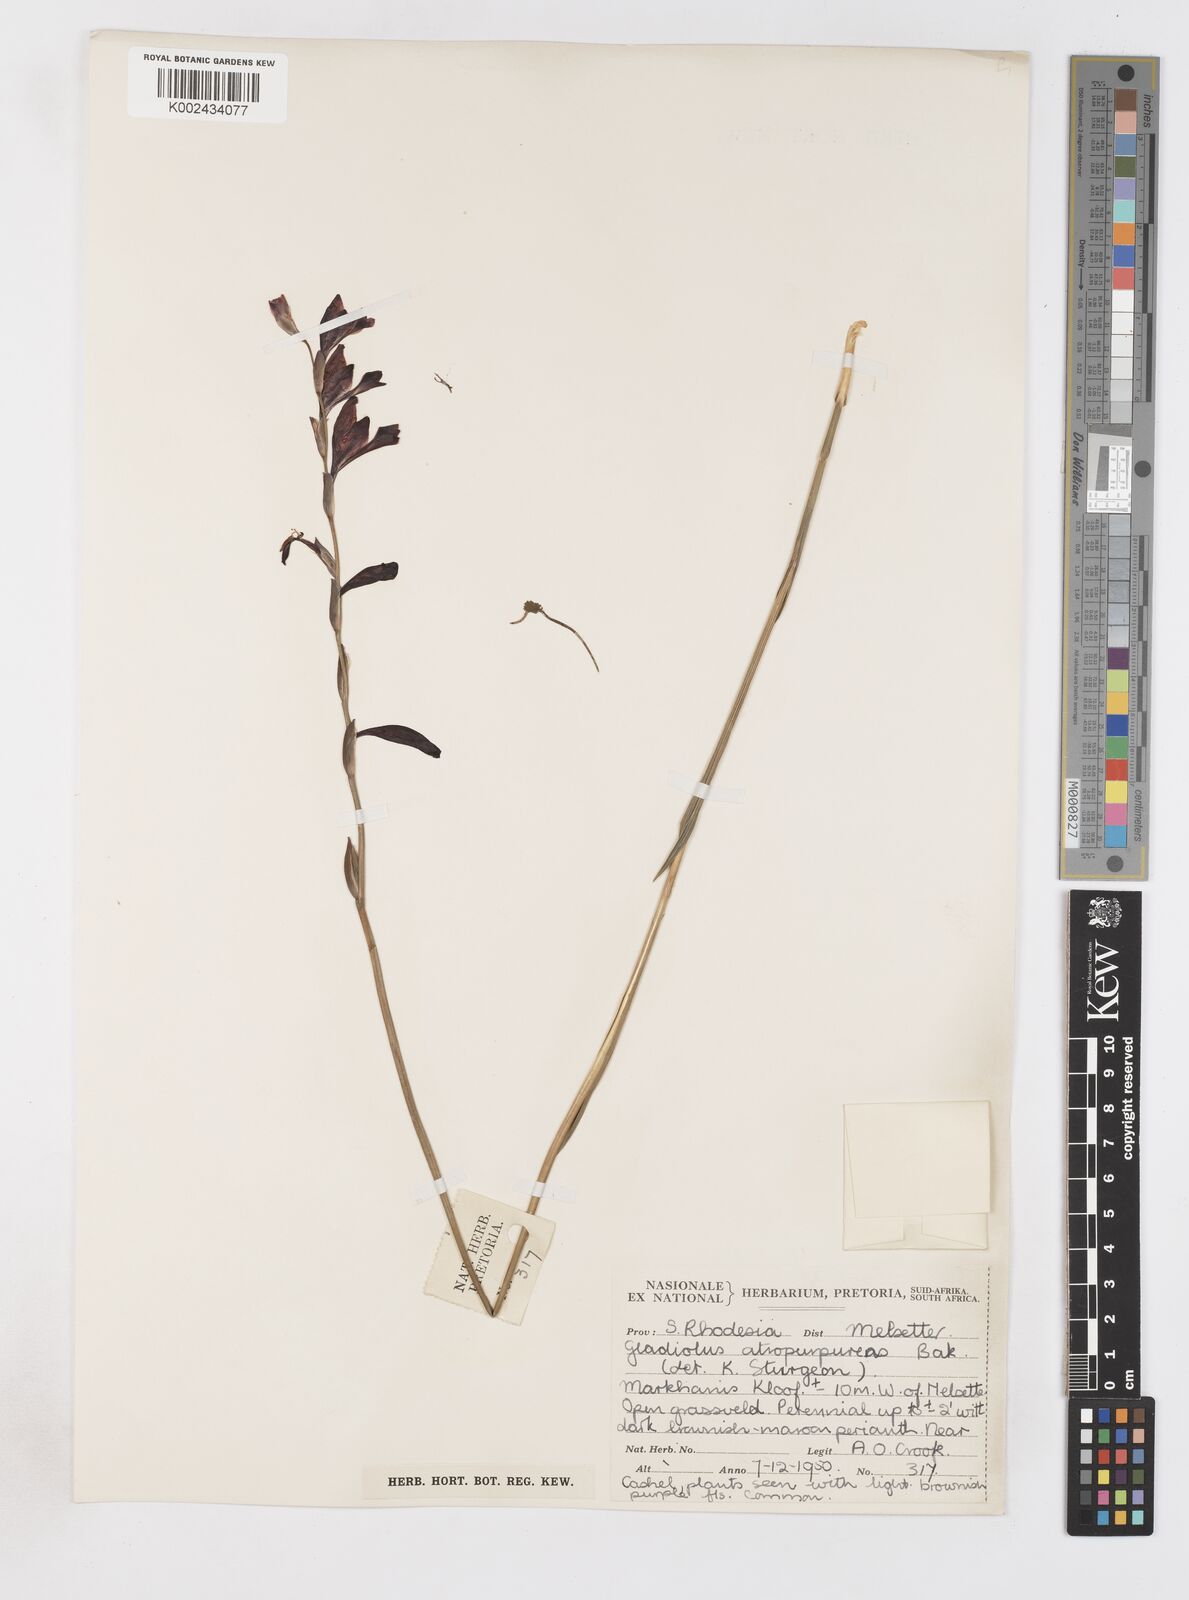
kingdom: Plantae
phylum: Tracheophyta
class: Liliopsida
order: Asparagales
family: Iridaceae
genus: Gladiolus
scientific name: Gladiolus atropurpureus
